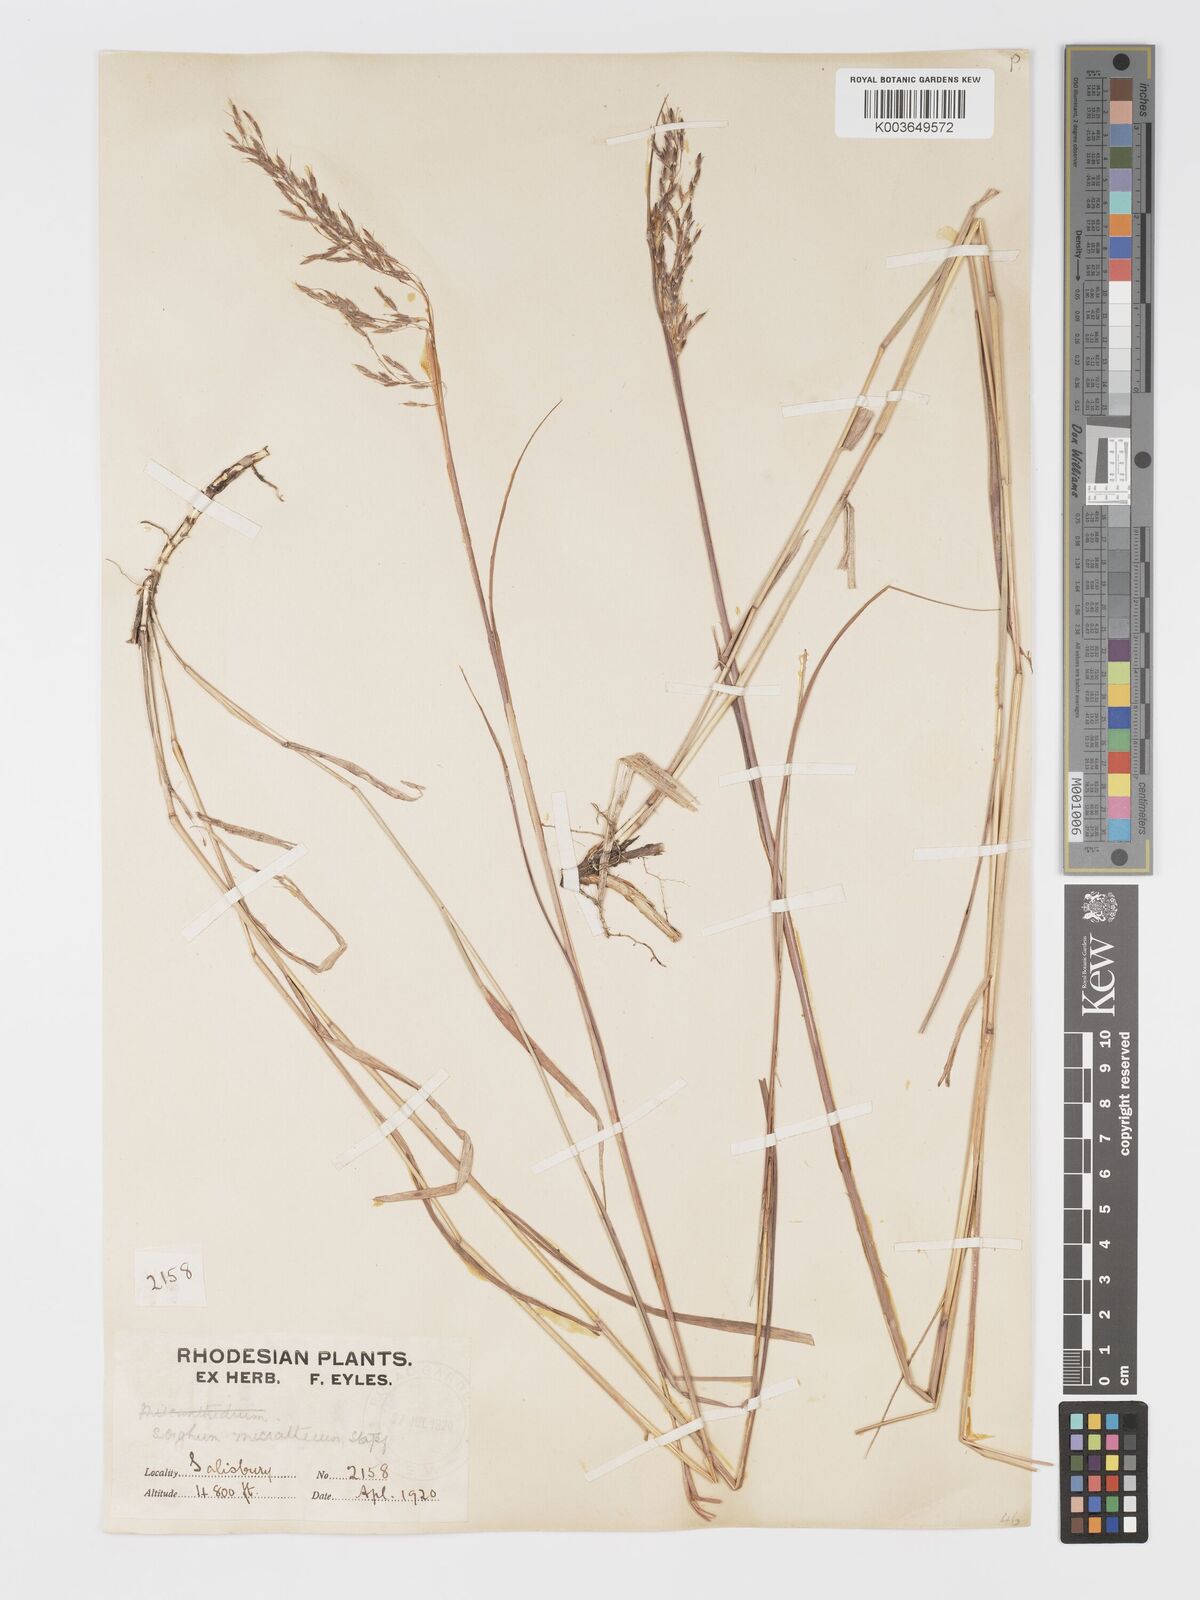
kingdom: Plantae
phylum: Tracheophyta
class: Liliopsida
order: Poales
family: Poaceae
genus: Sorghastrum
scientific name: Sorghastrum nudipes
